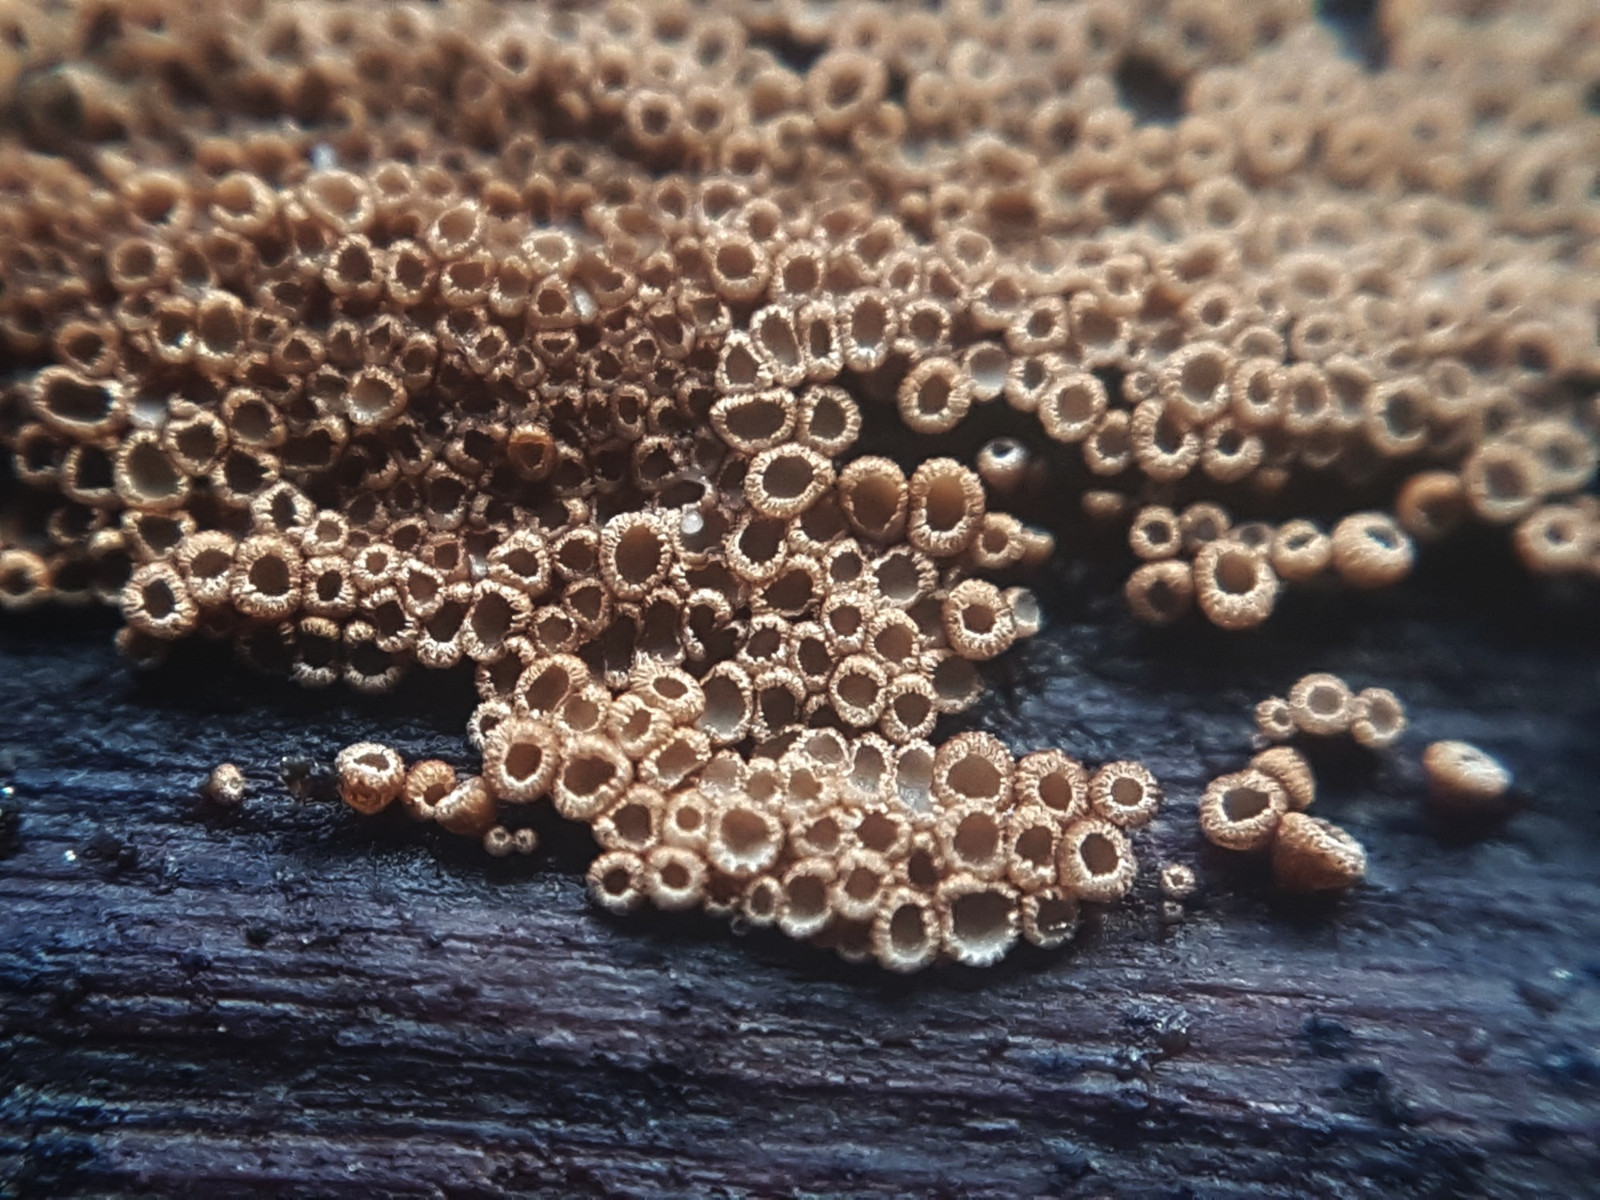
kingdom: Fungi
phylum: Basidiomycota
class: Agaricomycetes
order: Agaricales
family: Niaceae
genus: Merismodes
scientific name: Merismodes anomala
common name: almindelig læderskål
